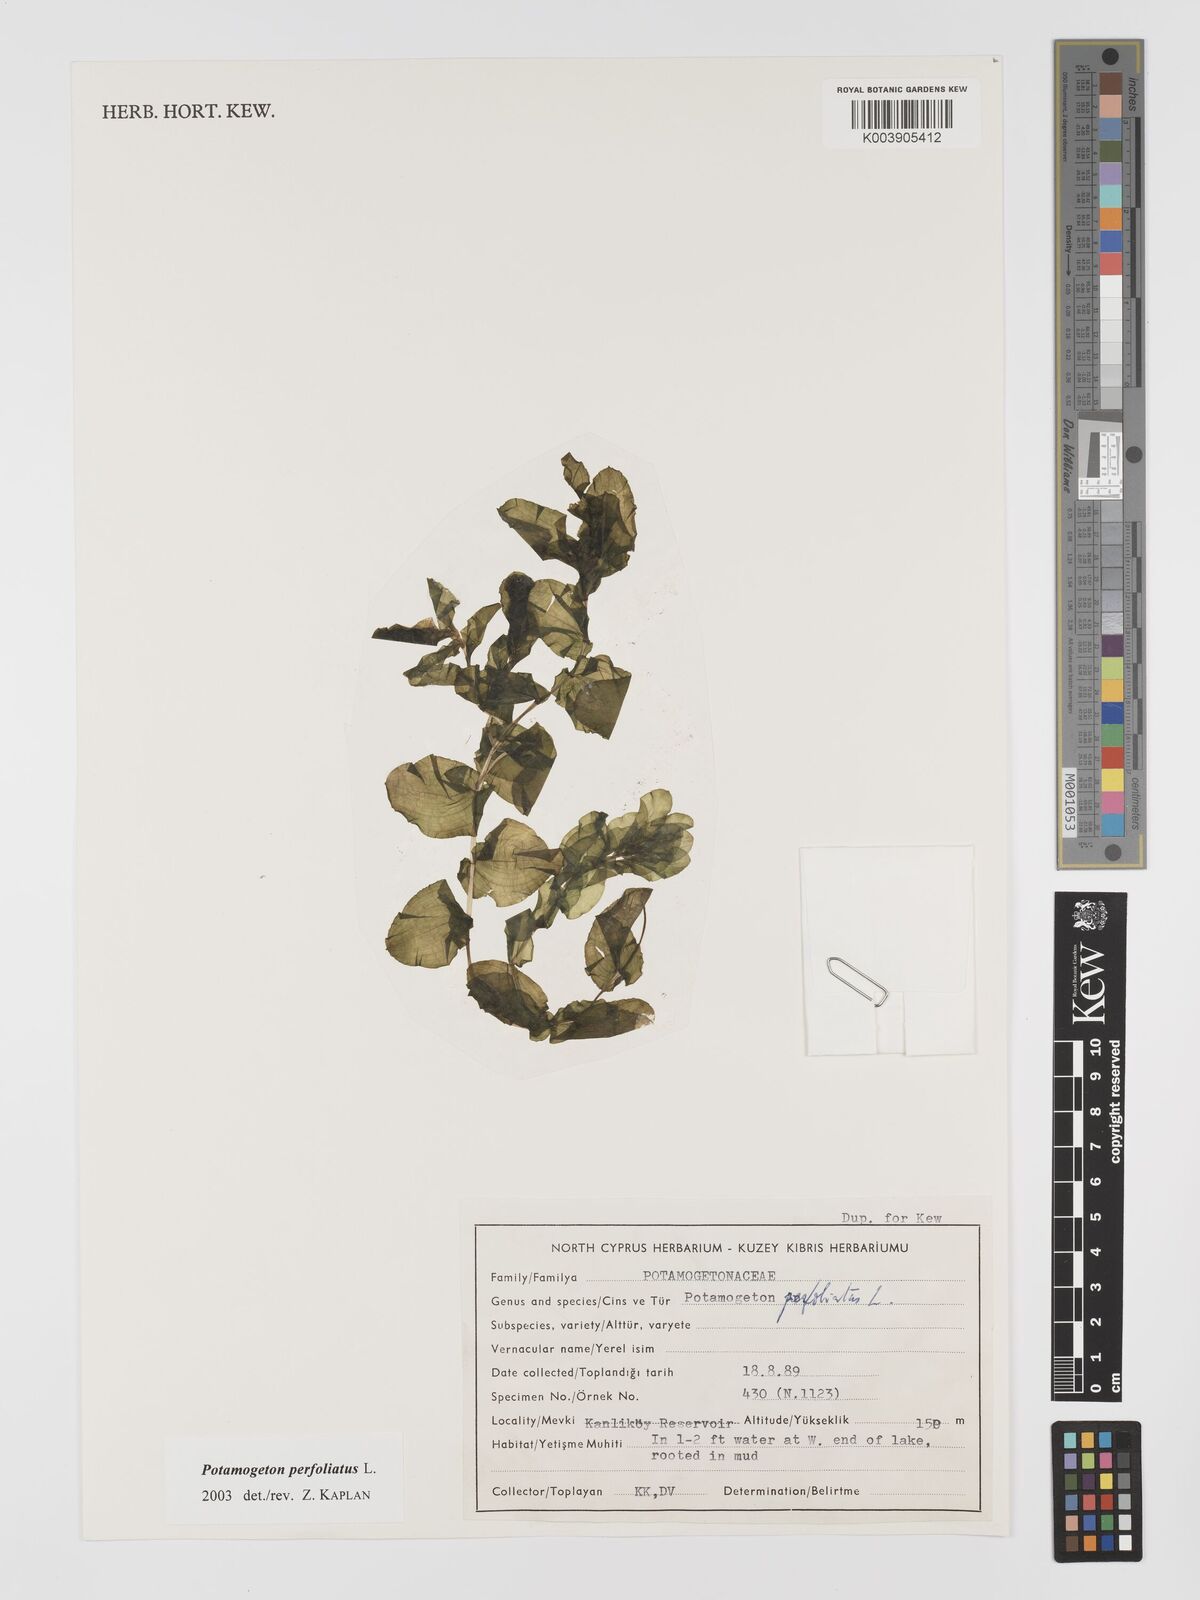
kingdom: Plantae
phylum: Tracheophyta
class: Liliopsida
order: Alismatales
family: Potamogetonaceae
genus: Potamogeton
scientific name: Potamogeton perfoliatus
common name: Perfoliate pondweed
